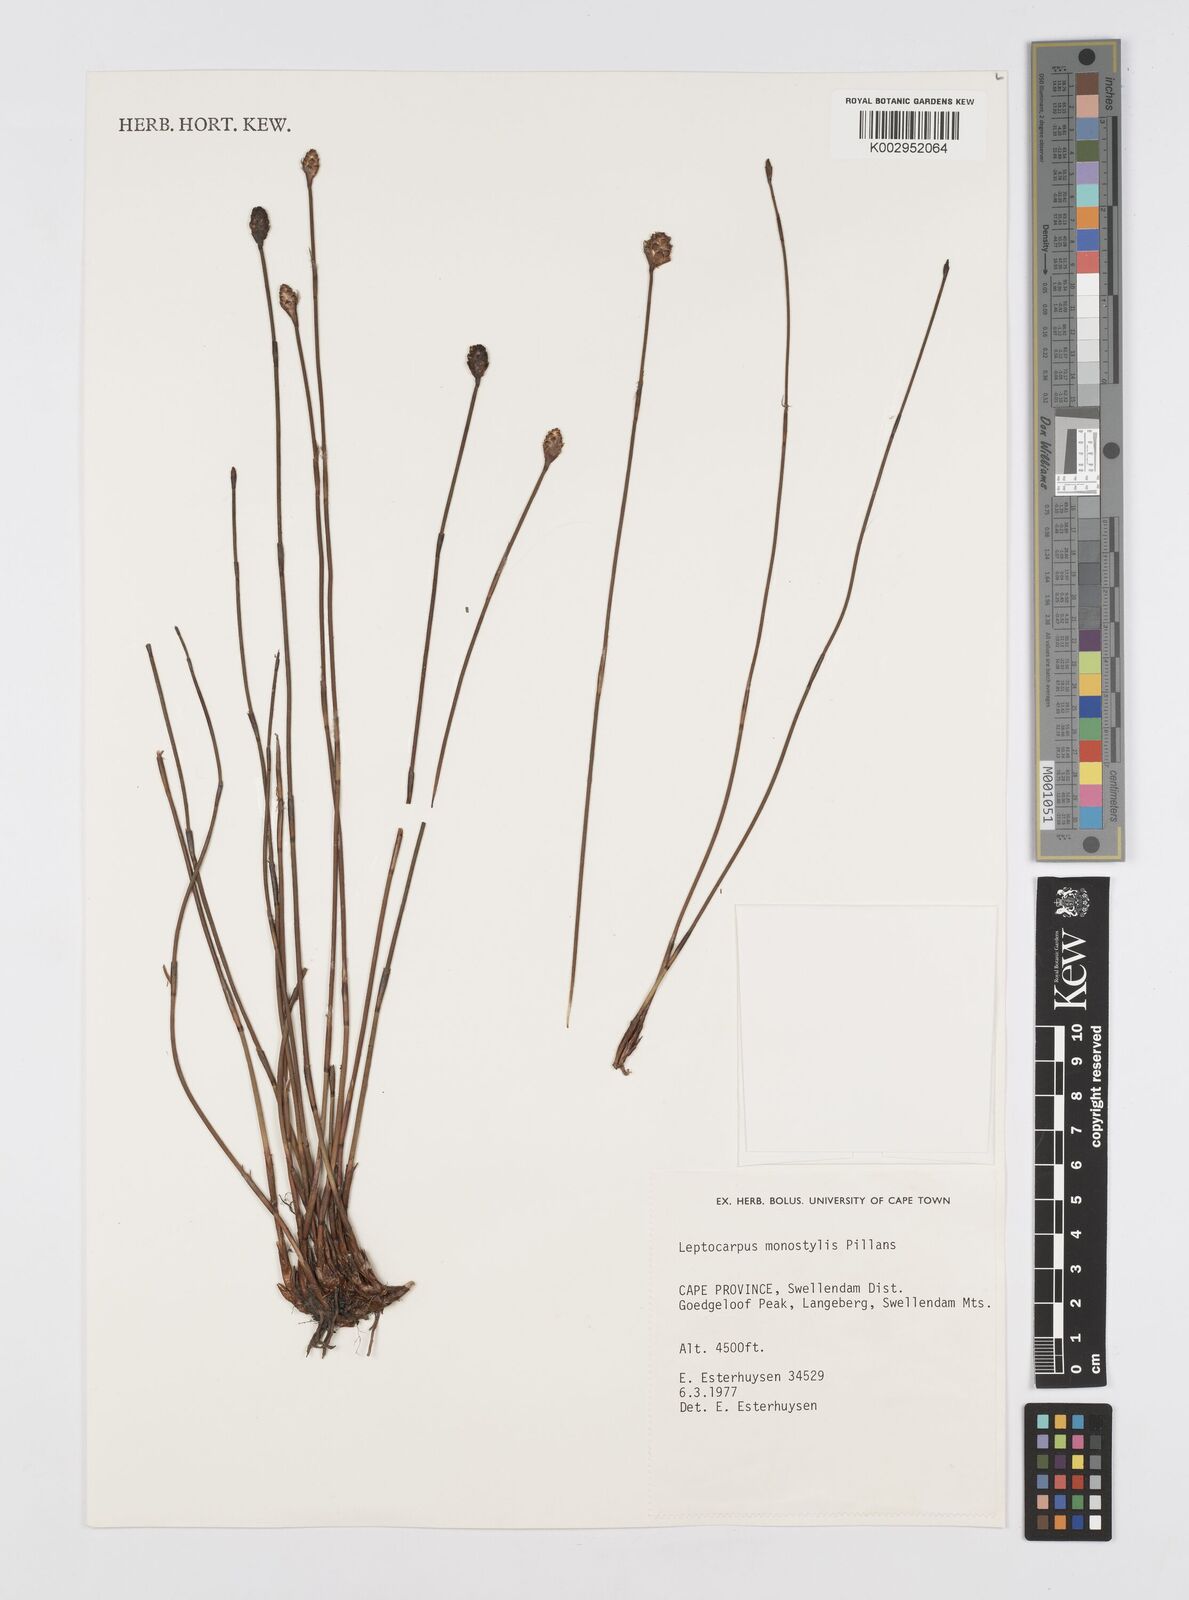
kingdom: Plantae
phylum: Tracheophyta
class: Liliopsida
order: Poales
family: Restionaceae
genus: Restio
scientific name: Restio monostylis
